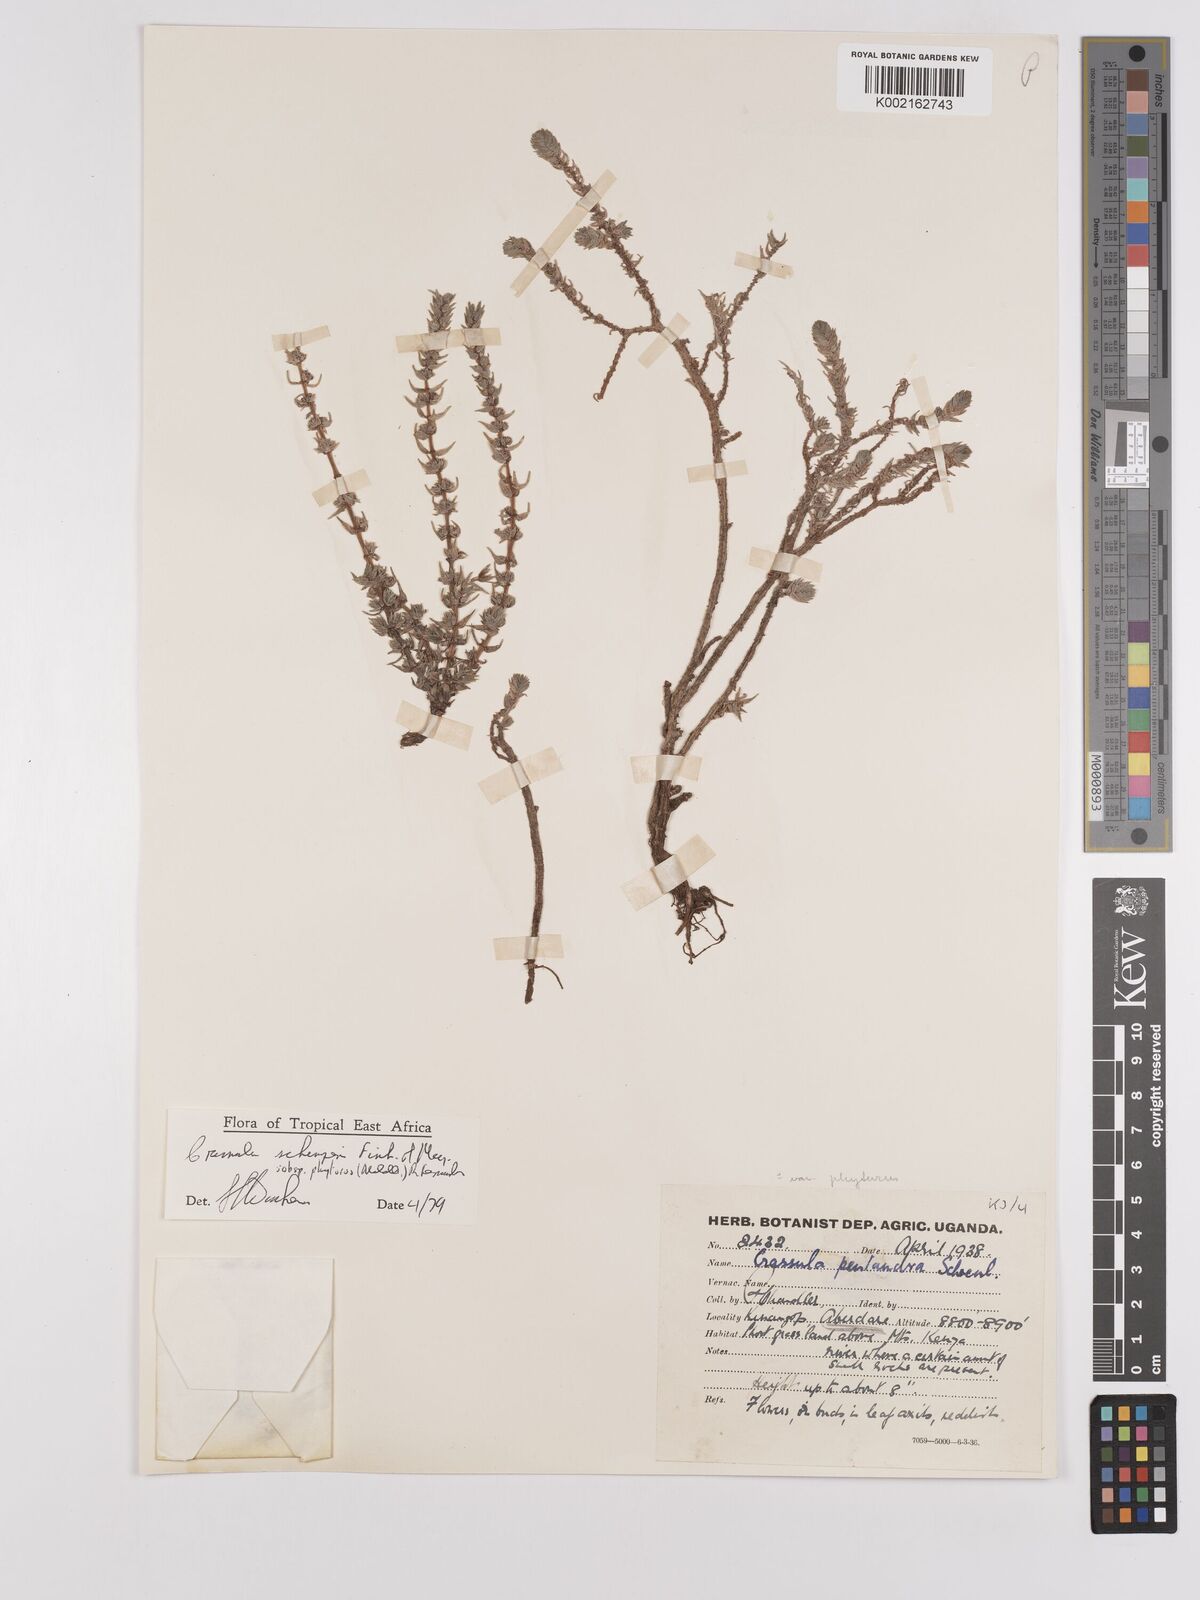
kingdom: Plantae
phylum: Tracheophyta
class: Magnoliopsida
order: Saxifragales
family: Crassulaceae
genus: Crassula
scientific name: Crassula schimperi
